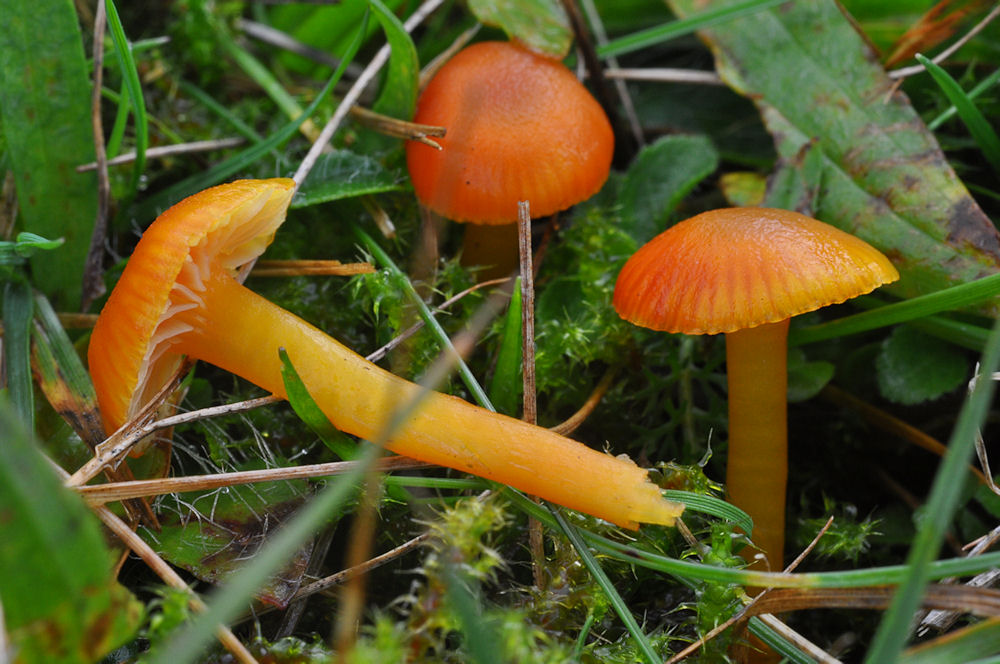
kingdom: Fungi
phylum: Basidiomycota
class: Agaricomycetes
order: Agaricales
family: Hygrophoraceae
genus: Hygrocybe
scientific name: Hygrocybe insipida
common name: liden vokshat
